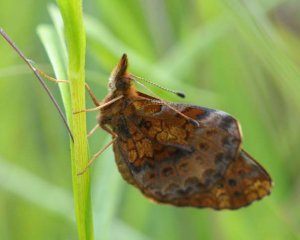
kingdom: Animalia
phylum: Arthropoda
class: Insecta
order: Lepidoptera
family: Nymphalidae
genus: Clossiana
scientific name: Clossiana toddi
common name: Meadow Fritillary
